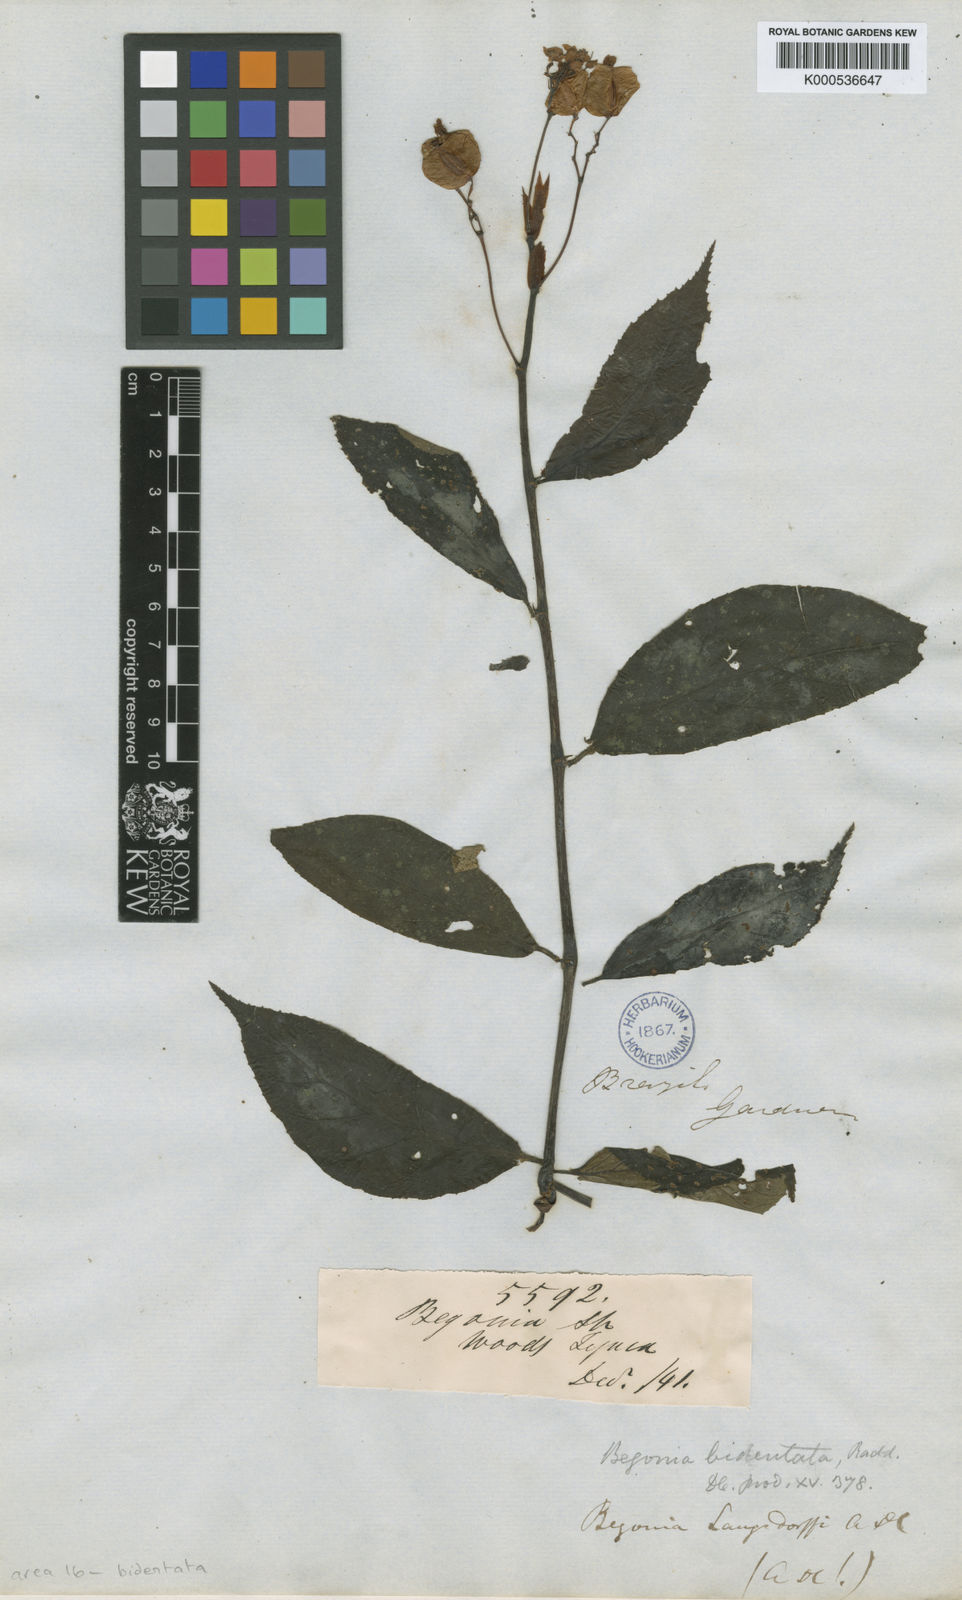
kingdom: Plantae
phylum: Tracheophyta
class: Magnoliopsida
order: Cucurbitales
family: Begoniaceae
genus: Begonia
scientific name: Begonia bidentata
